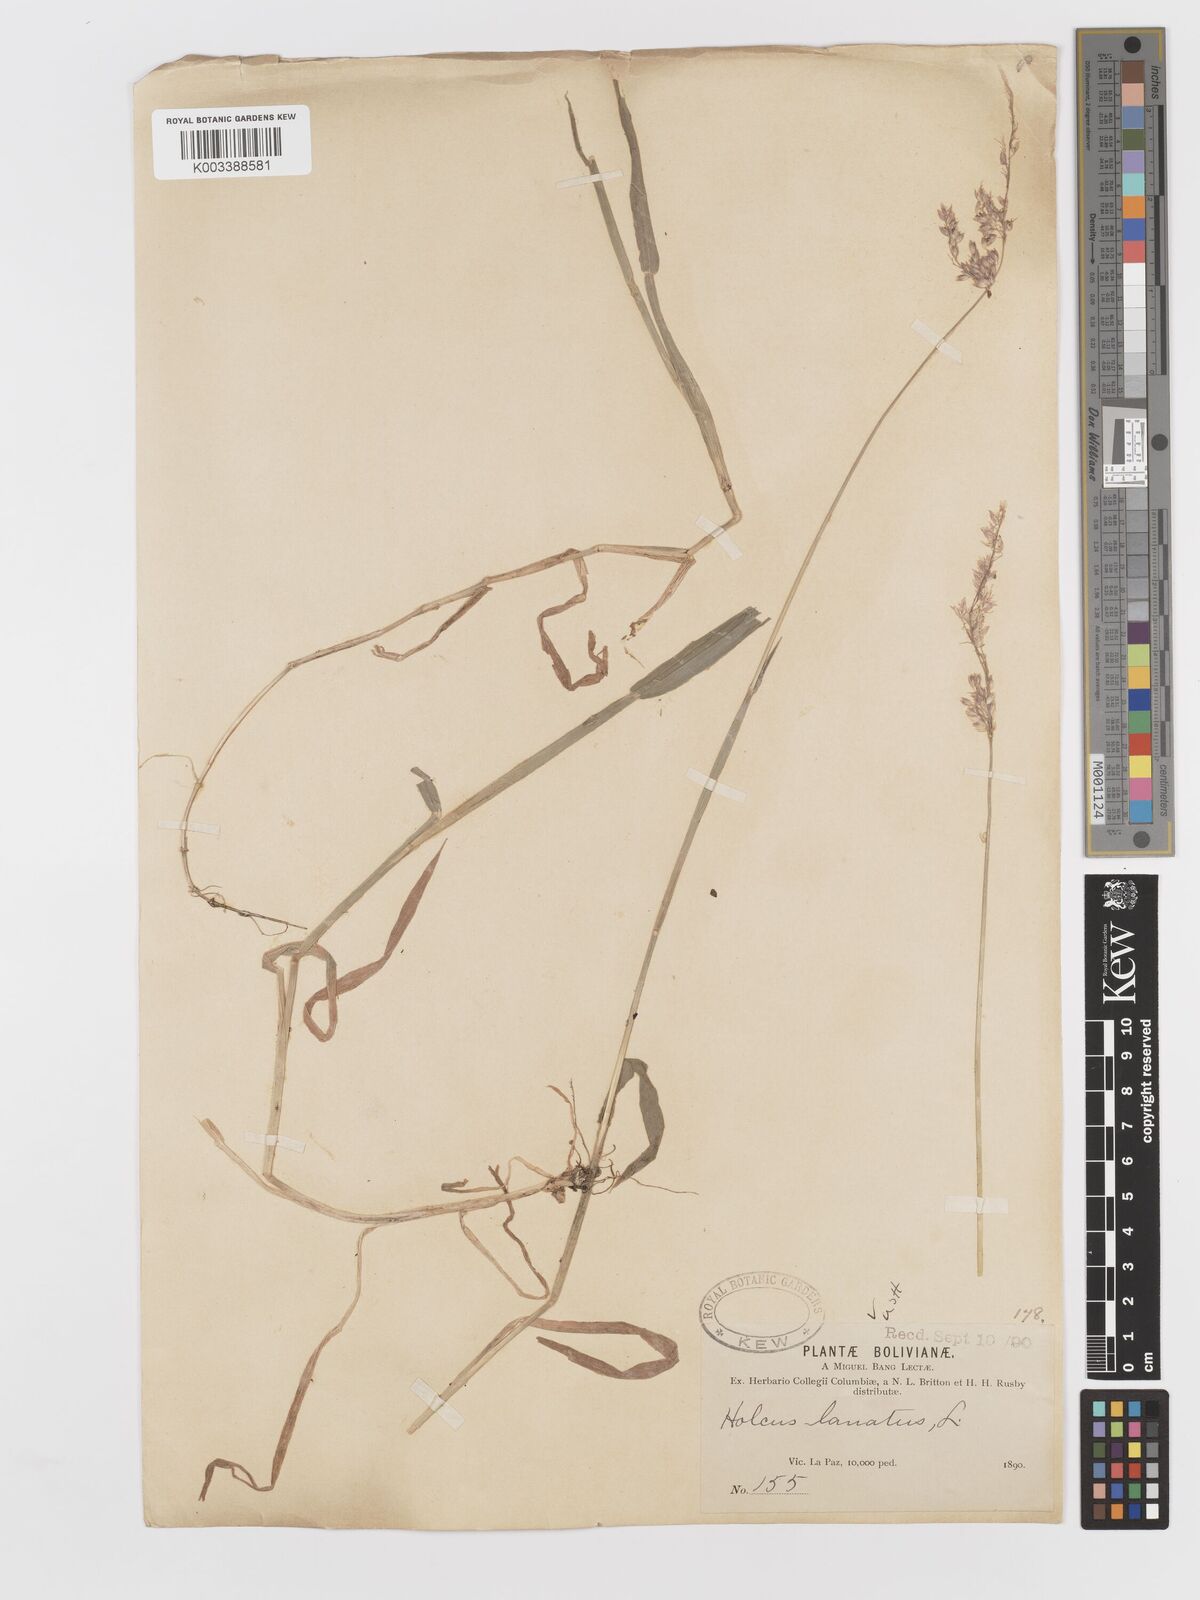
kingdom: Plantae
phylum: Tracheophyta
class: Liliopsida
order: Poales
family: Poaceae
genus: Holcus
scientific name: Holcus lanatus
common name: Yorkshire-fog
